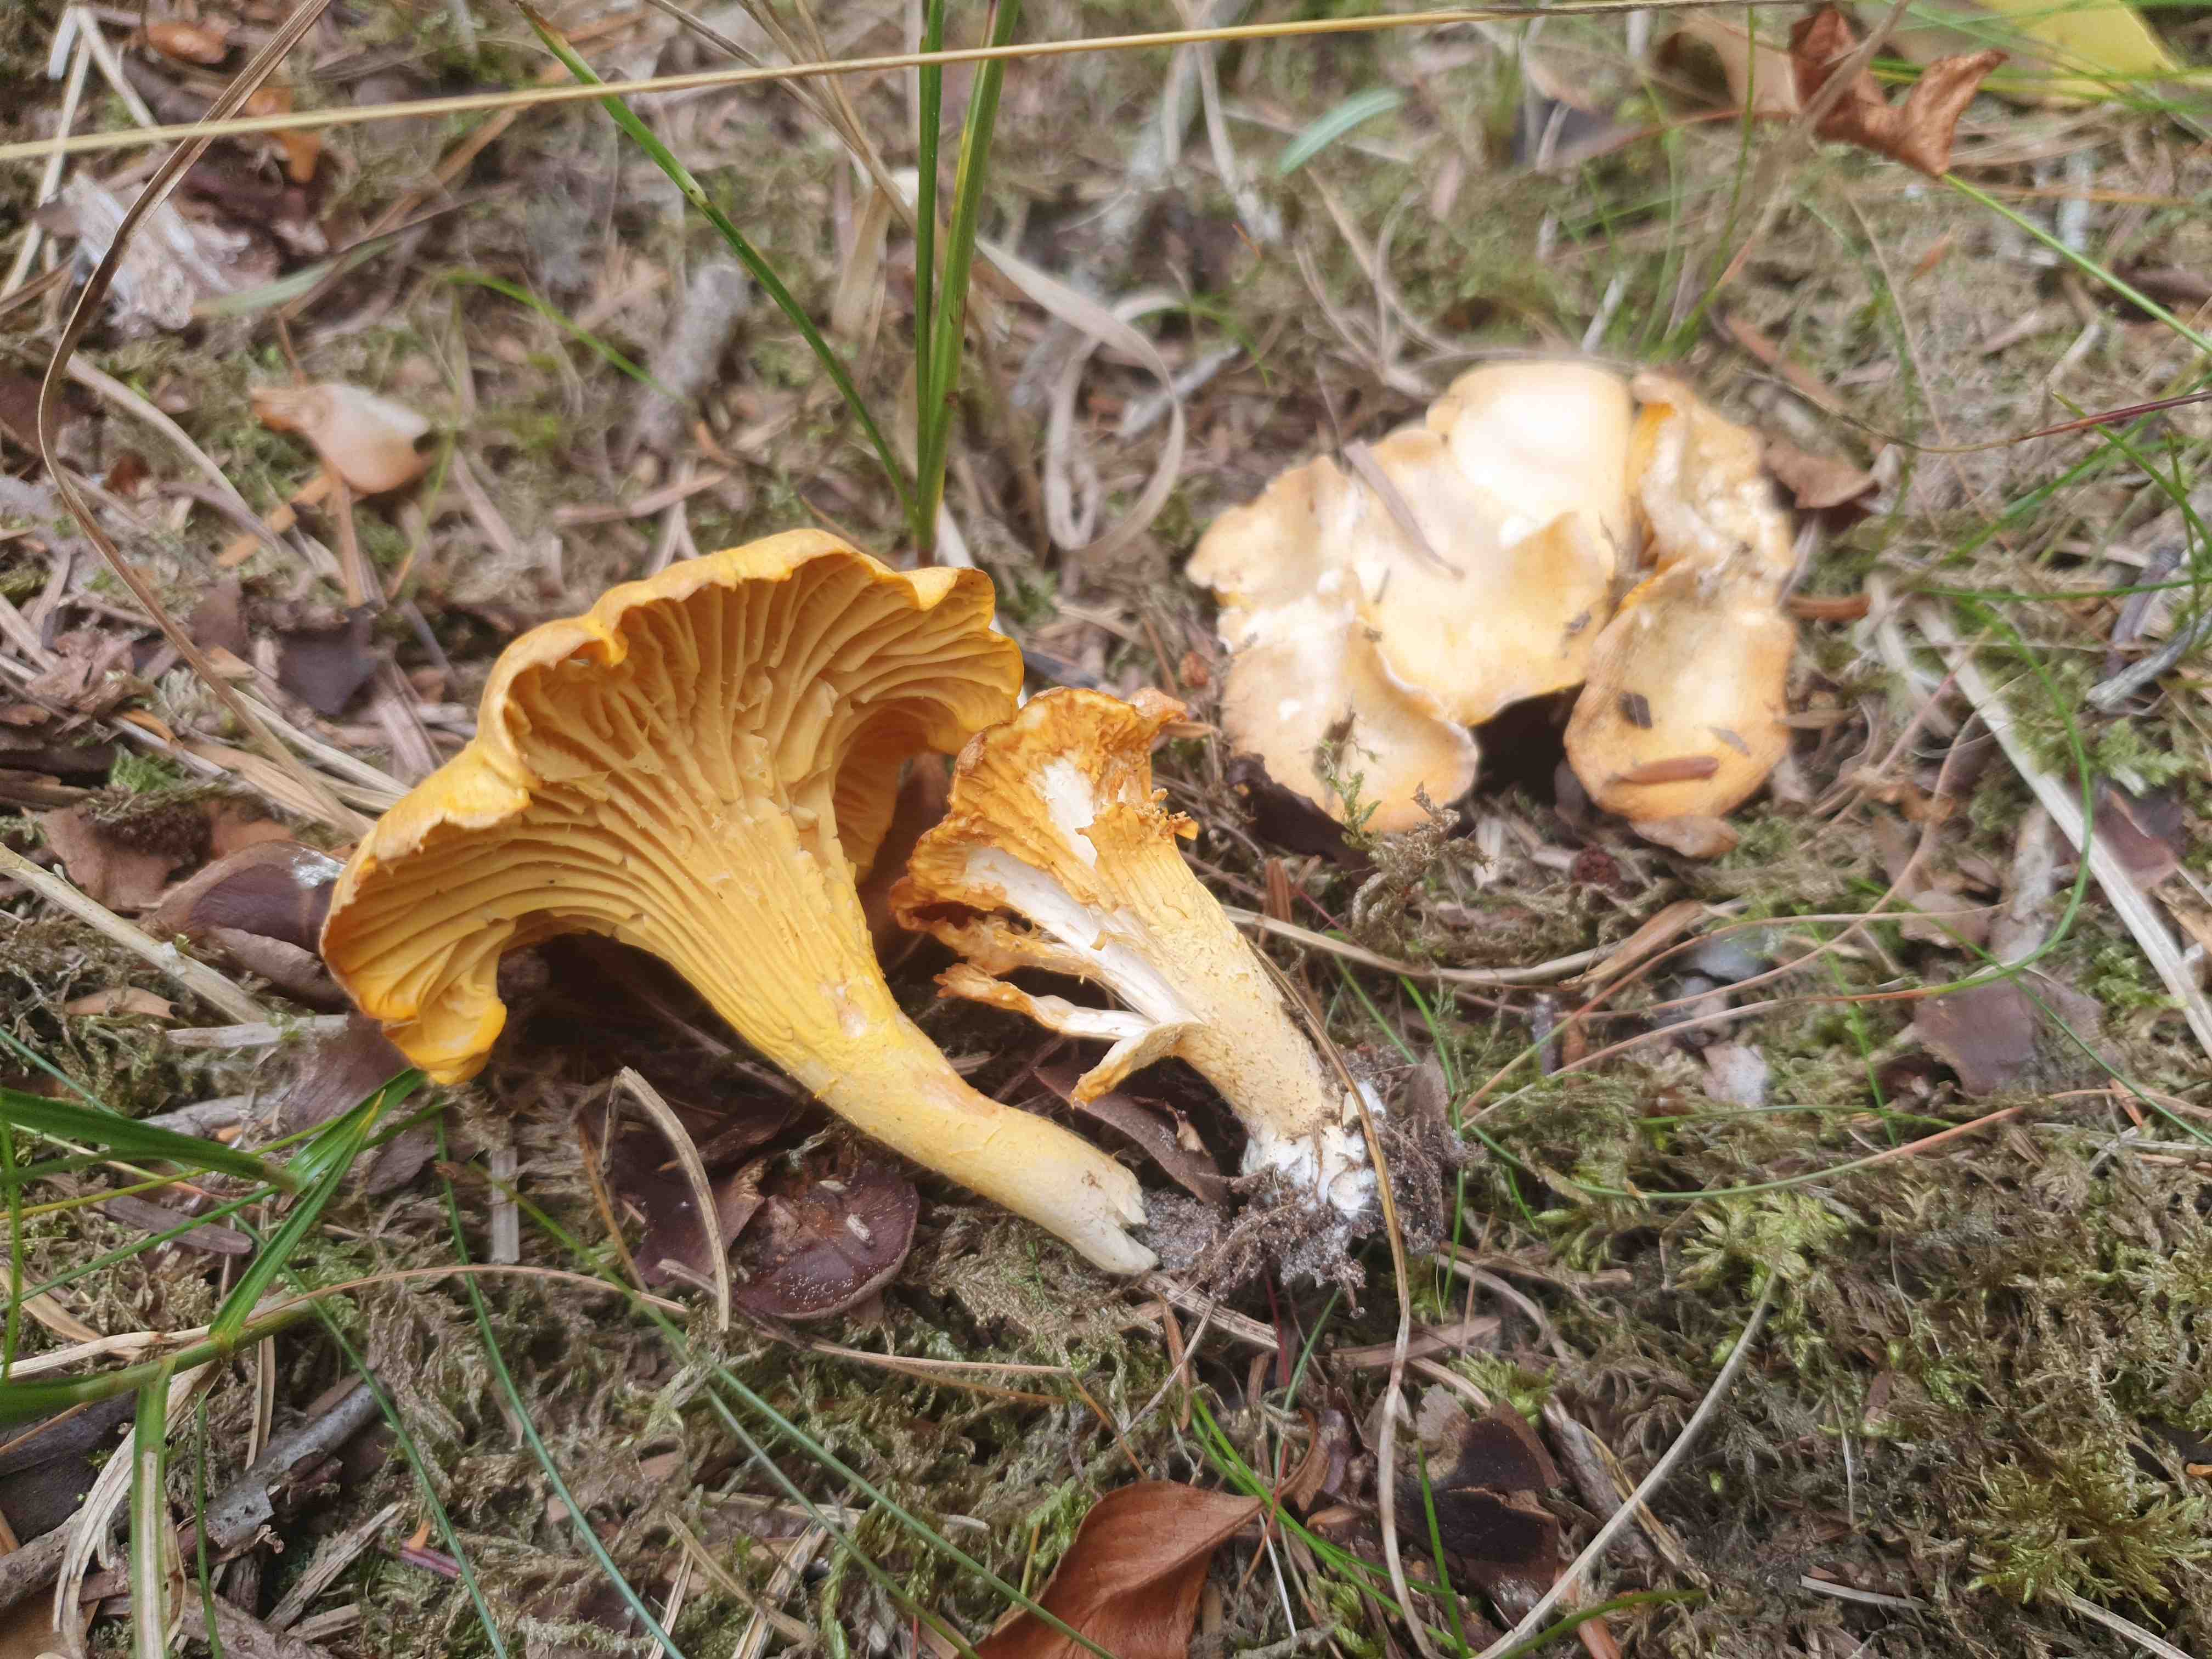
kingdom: Fungi
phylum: Basidiomycota
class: Agaricomycetes
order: Cantharellales
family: Hydnaceae
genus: Cantharellus
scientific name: Cantharellus cibarius
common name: almindelig kantarel
